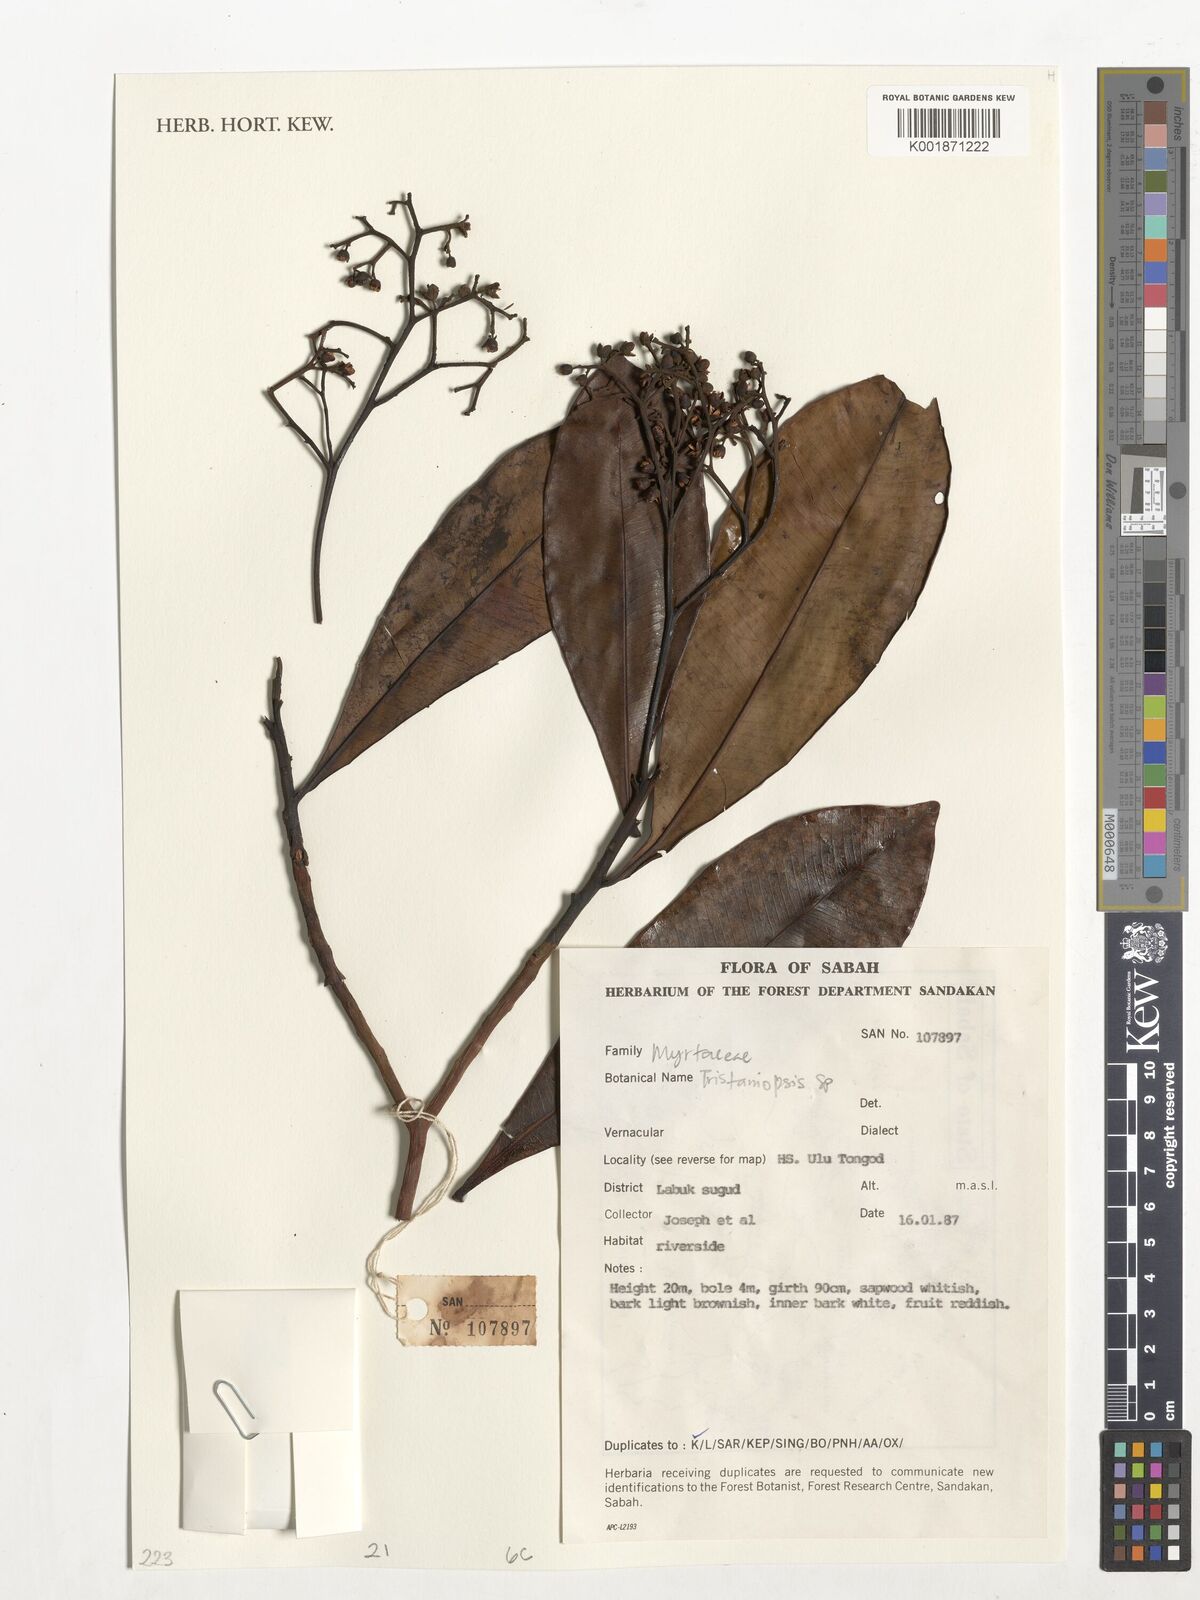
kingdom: Plantae
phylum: Tracheophyta
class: Magnoliopsida
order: Myrtales
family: Myrtaceae
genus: Tristaniopsis
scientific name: Tristaniopsis
